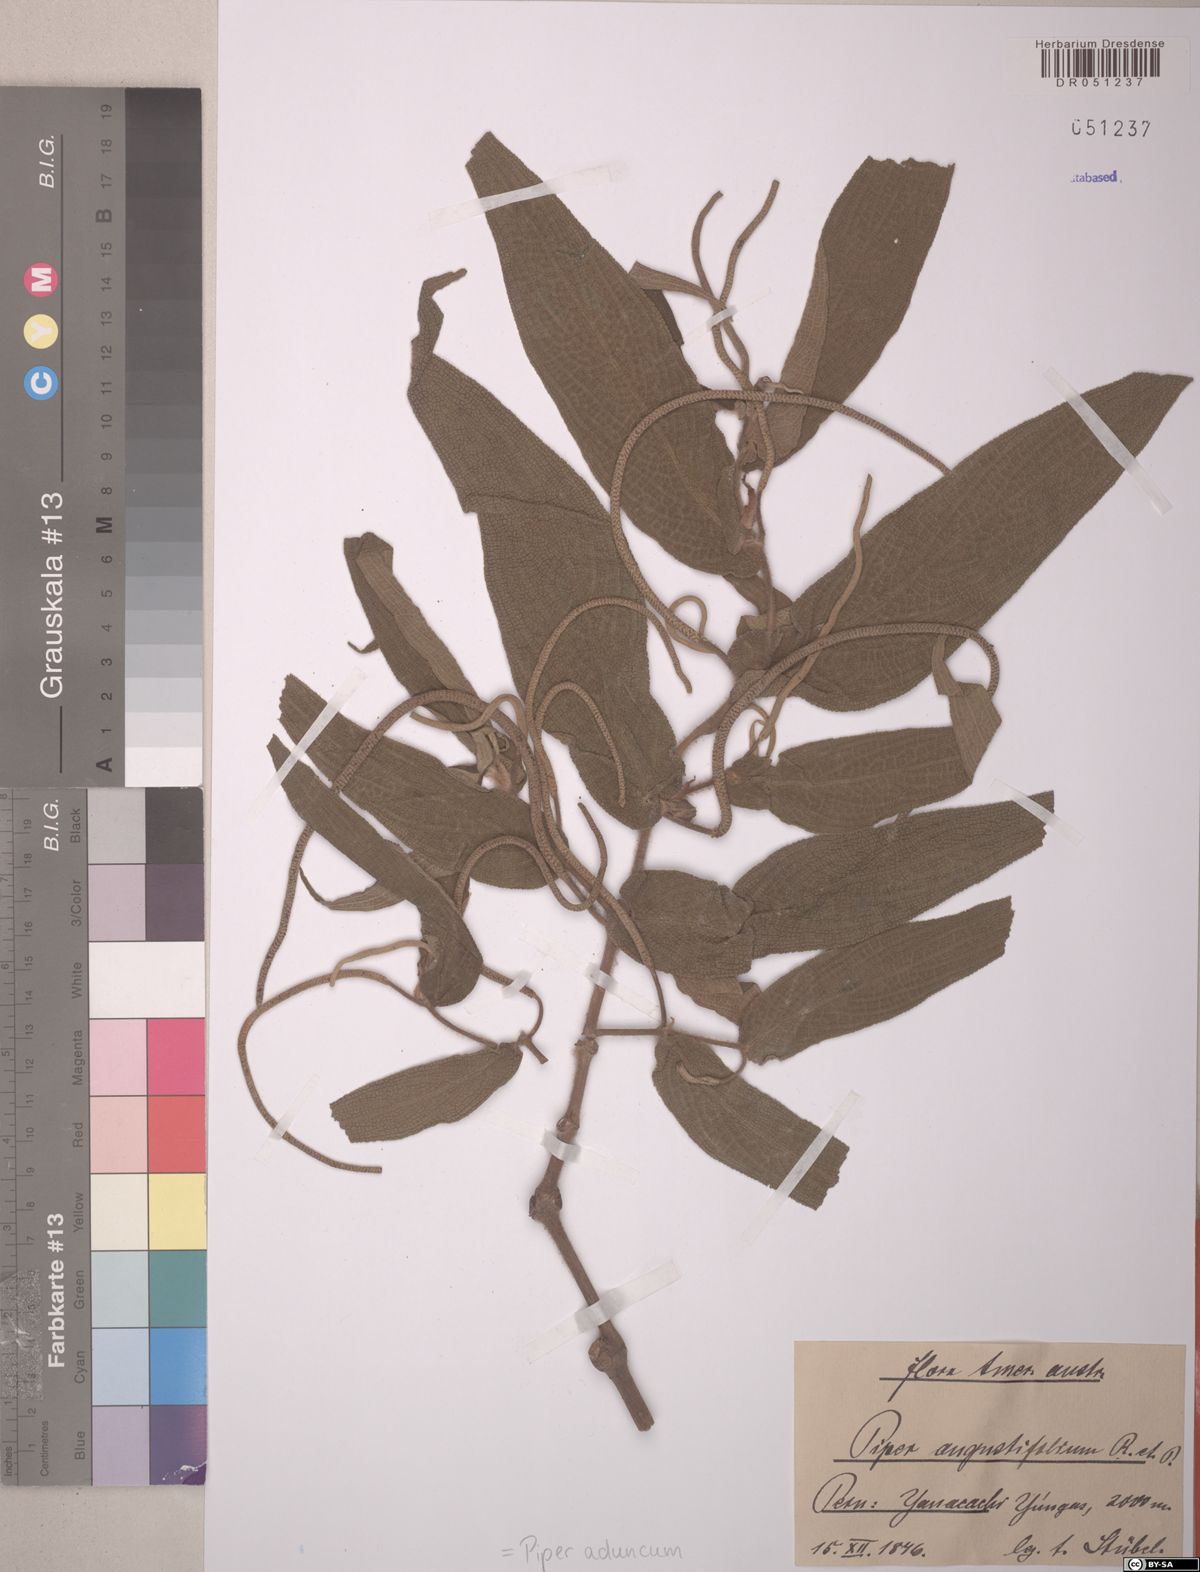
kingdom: Plantae
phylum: Tracheophyta
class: Magnoliopsida
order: Piperales
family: Piperaceae
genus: Piper
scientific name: Piper aduncum
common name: Spiked pepper
